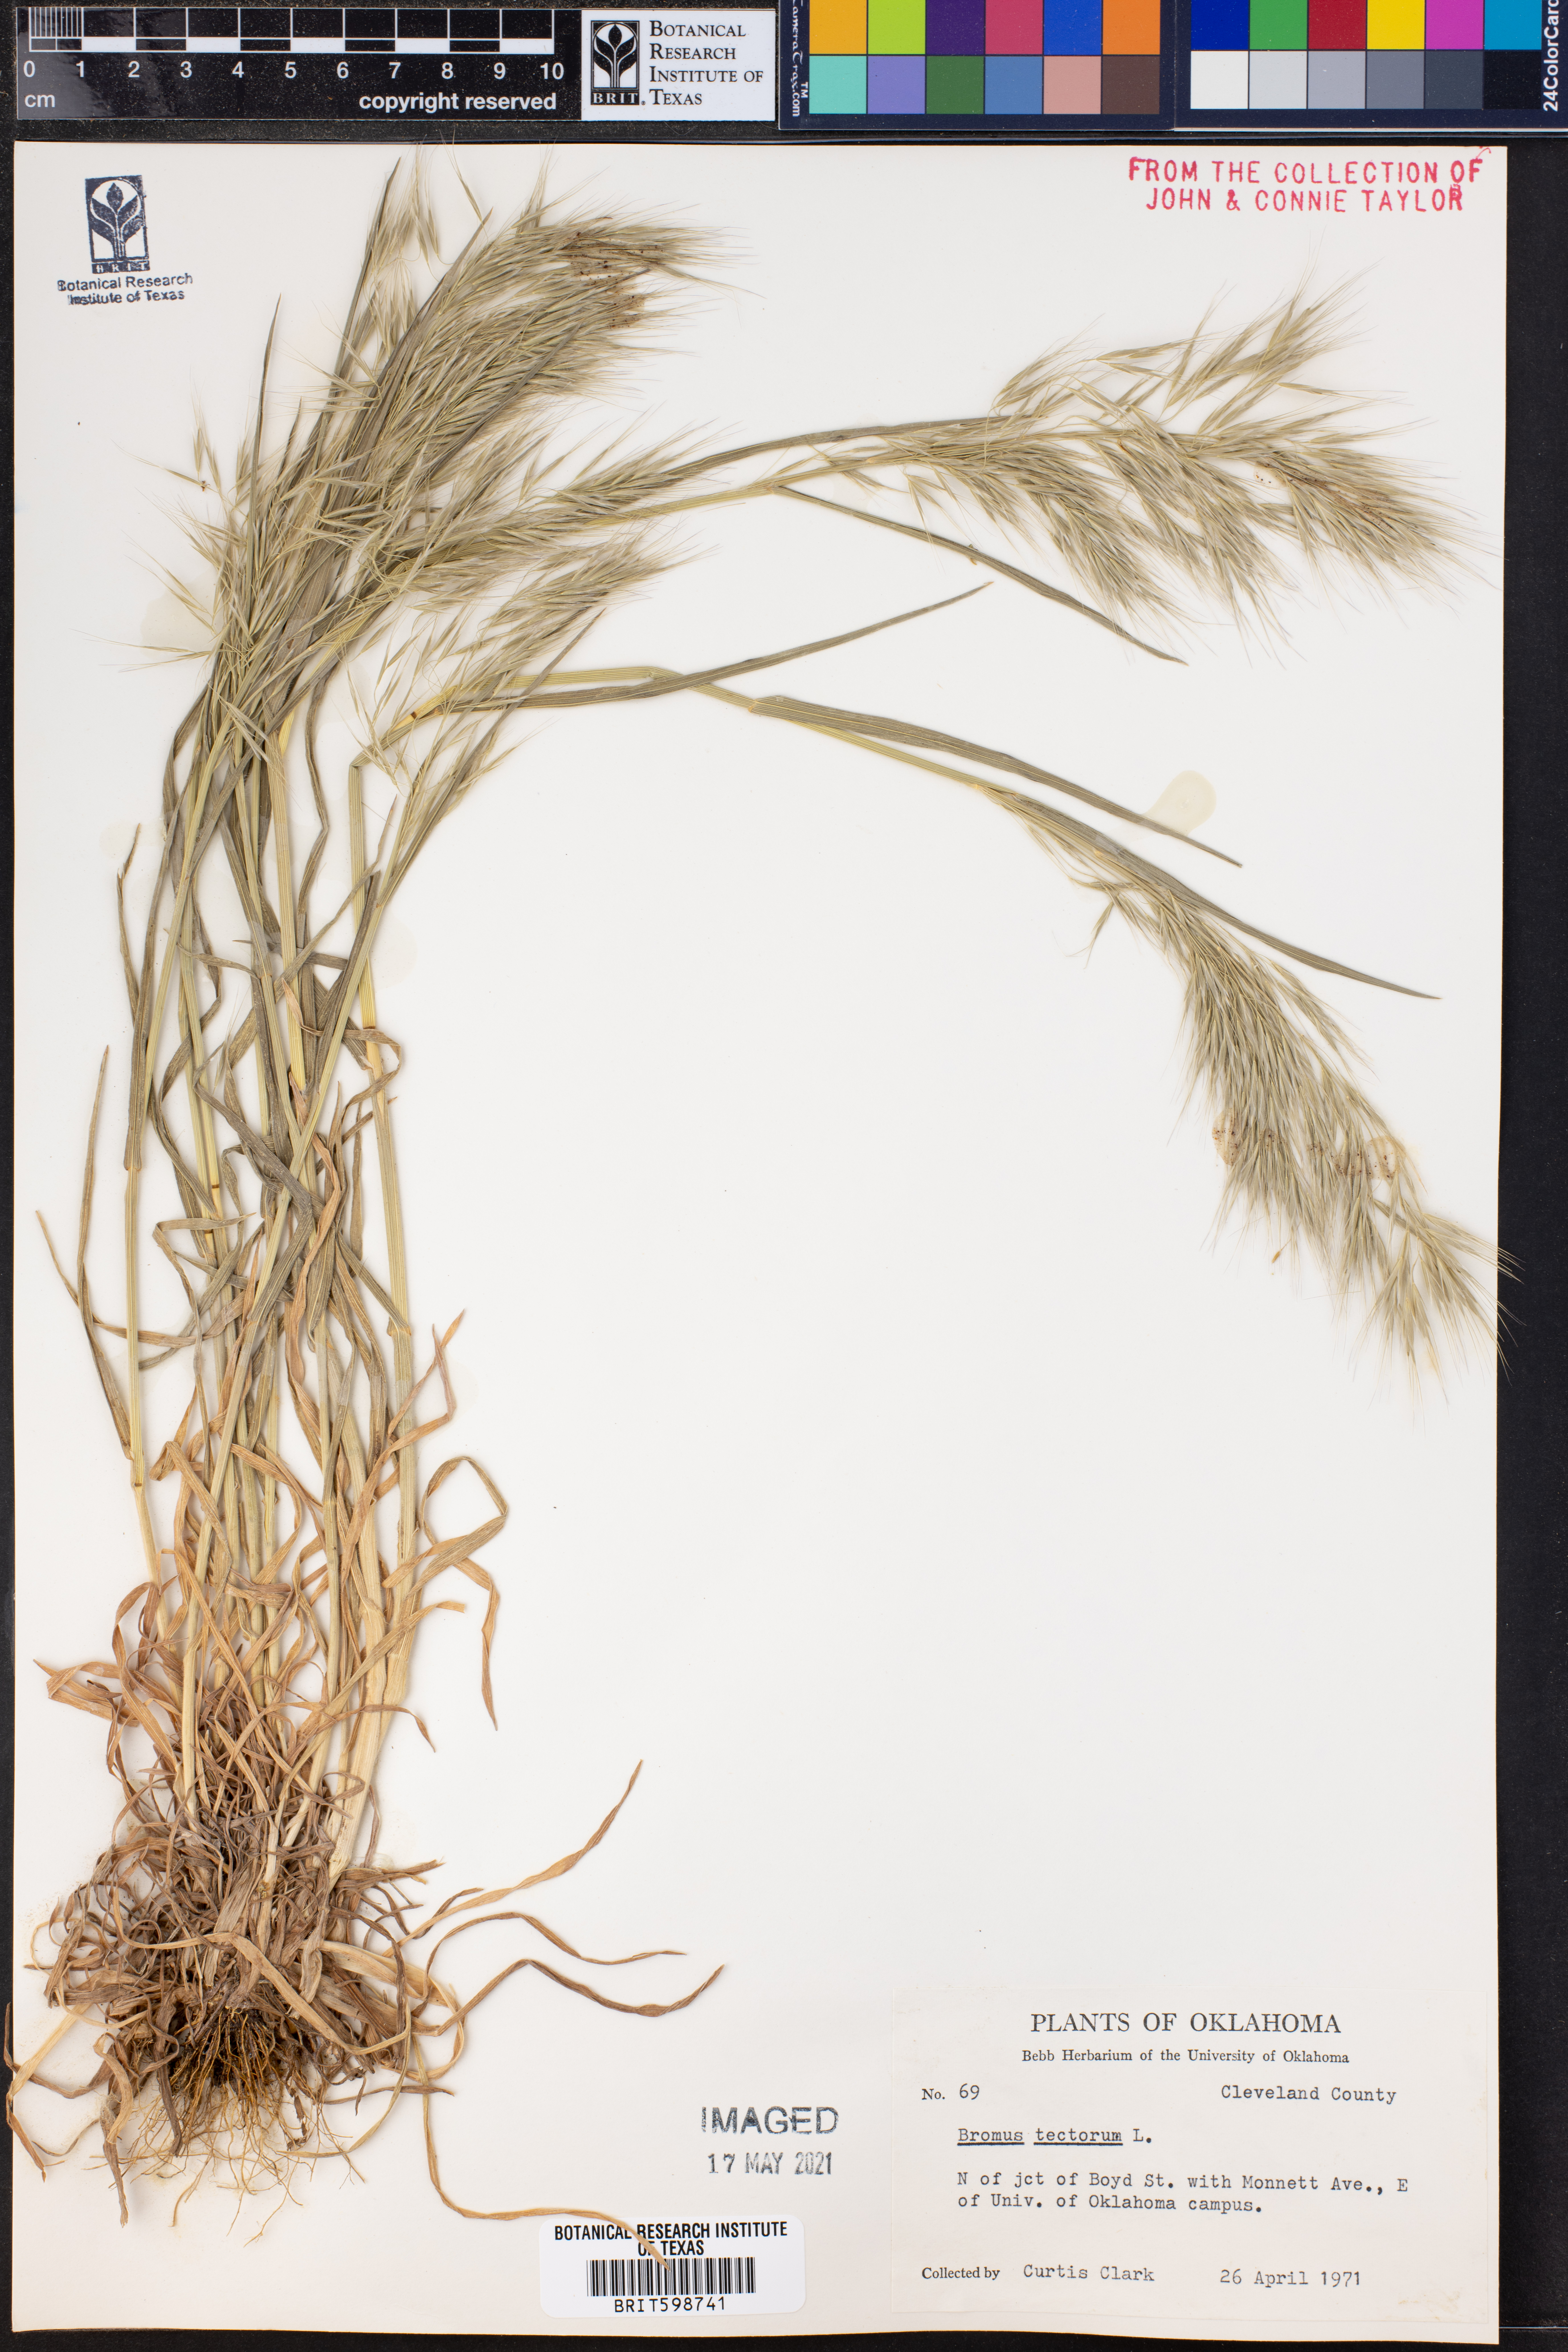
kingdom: Plantae
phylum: Tracheophyta
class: Liliopsida
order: Poales
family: Poaceae
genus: Bromus
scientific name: Bromus tectorum
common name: Cheatgrass
